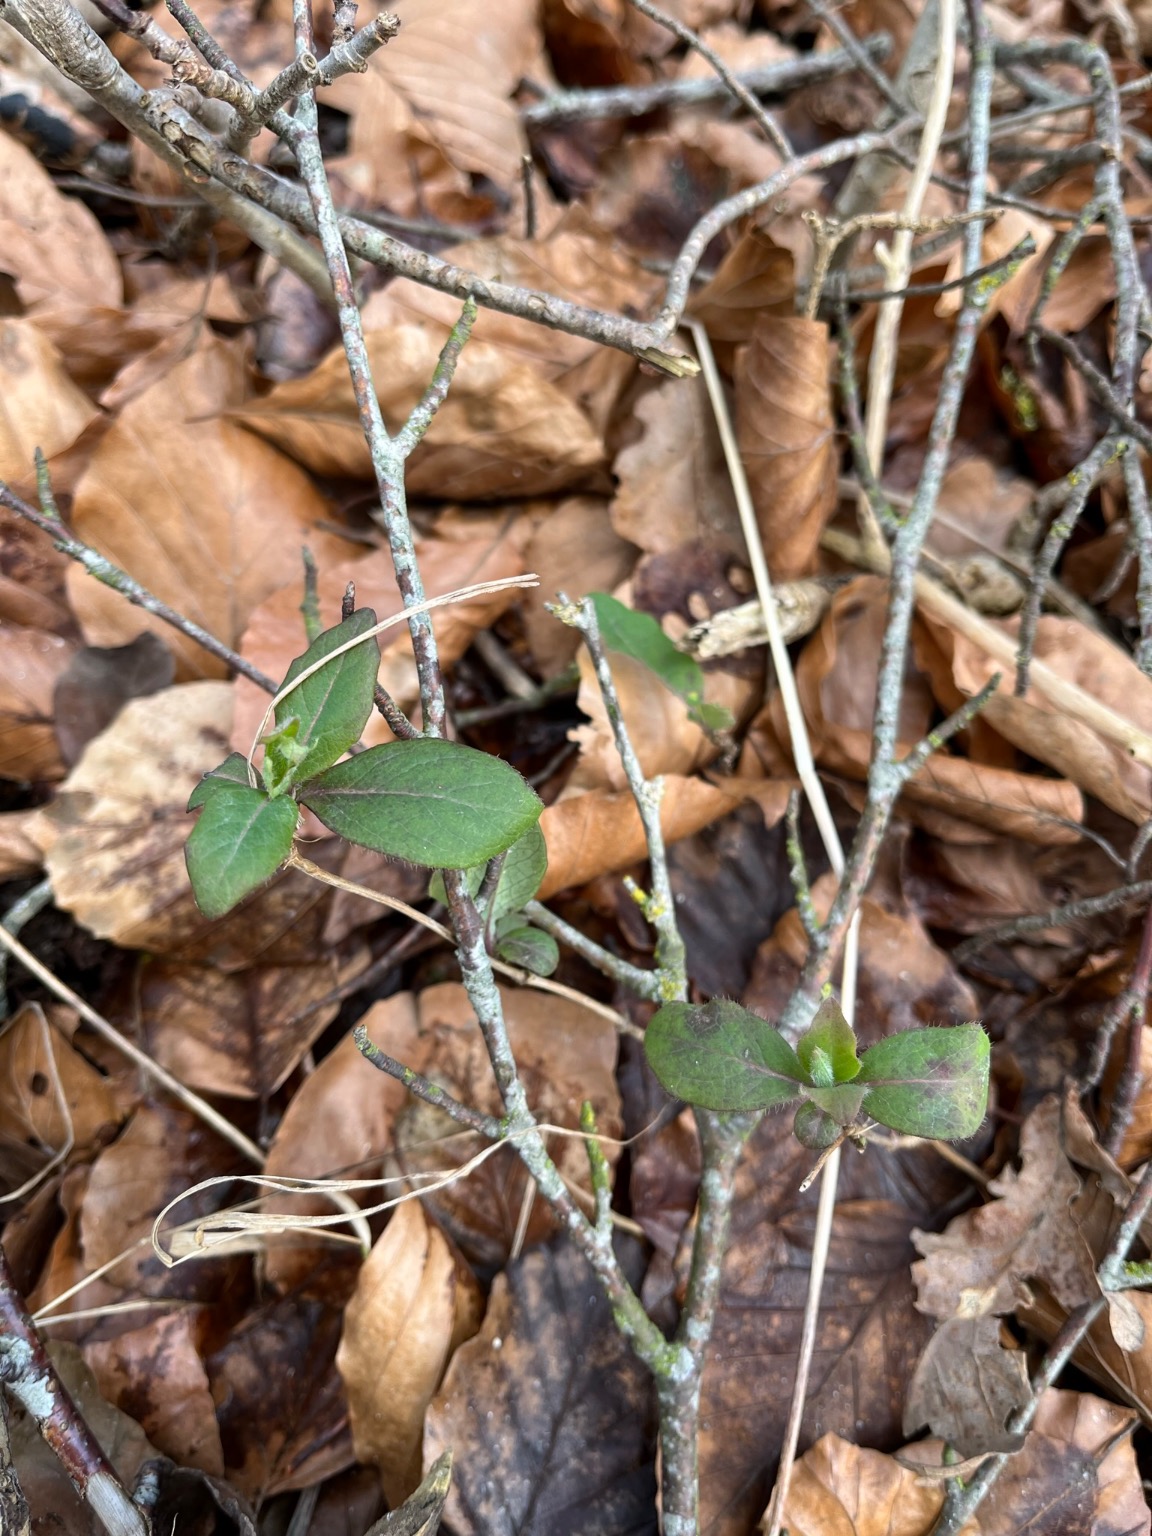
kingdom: Plantae
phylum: Tracheophyta
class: Magnoliopsida
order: Dipsacales
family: Caprifoliaceae
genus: Lonicera
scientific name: Lonicera periclymenum
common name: Almindelig gedeblad
